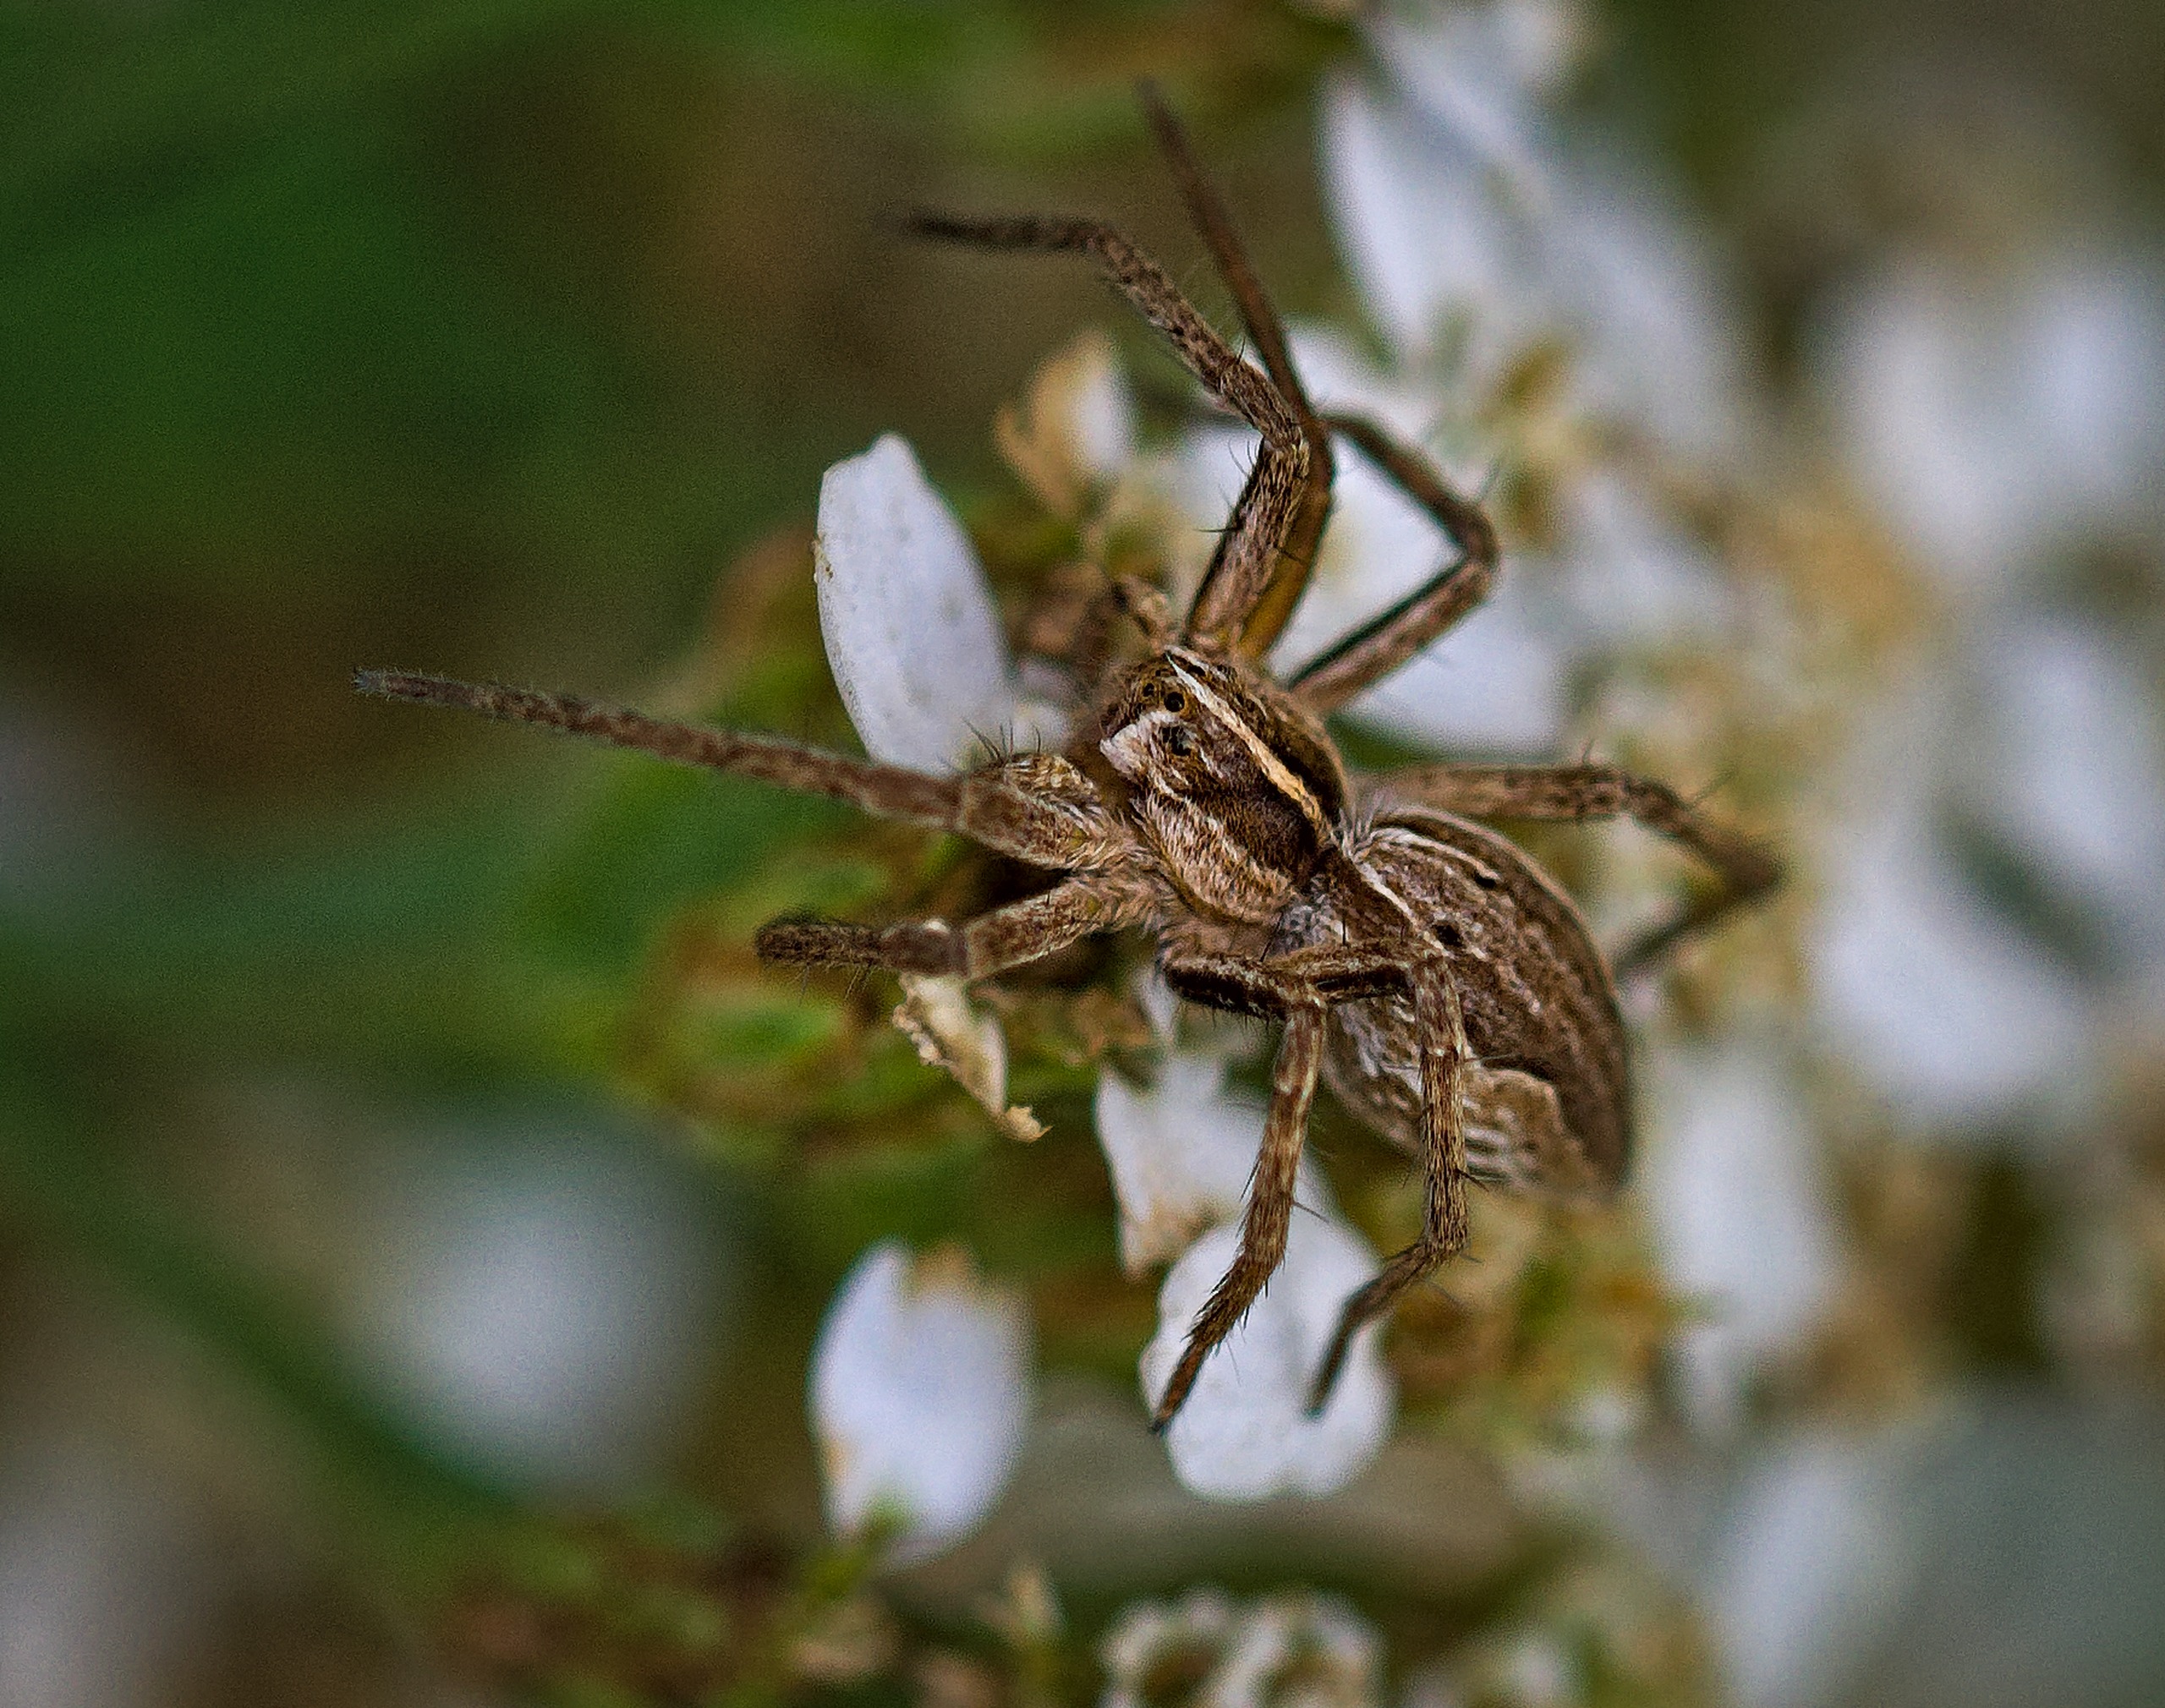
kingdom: Animalia
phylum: Arthropoda
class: Arachnida
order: Araneae
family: Pisauridae
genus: Pisaura
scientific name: Pisaura mirabilis
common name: Almindelig rovedderkop
